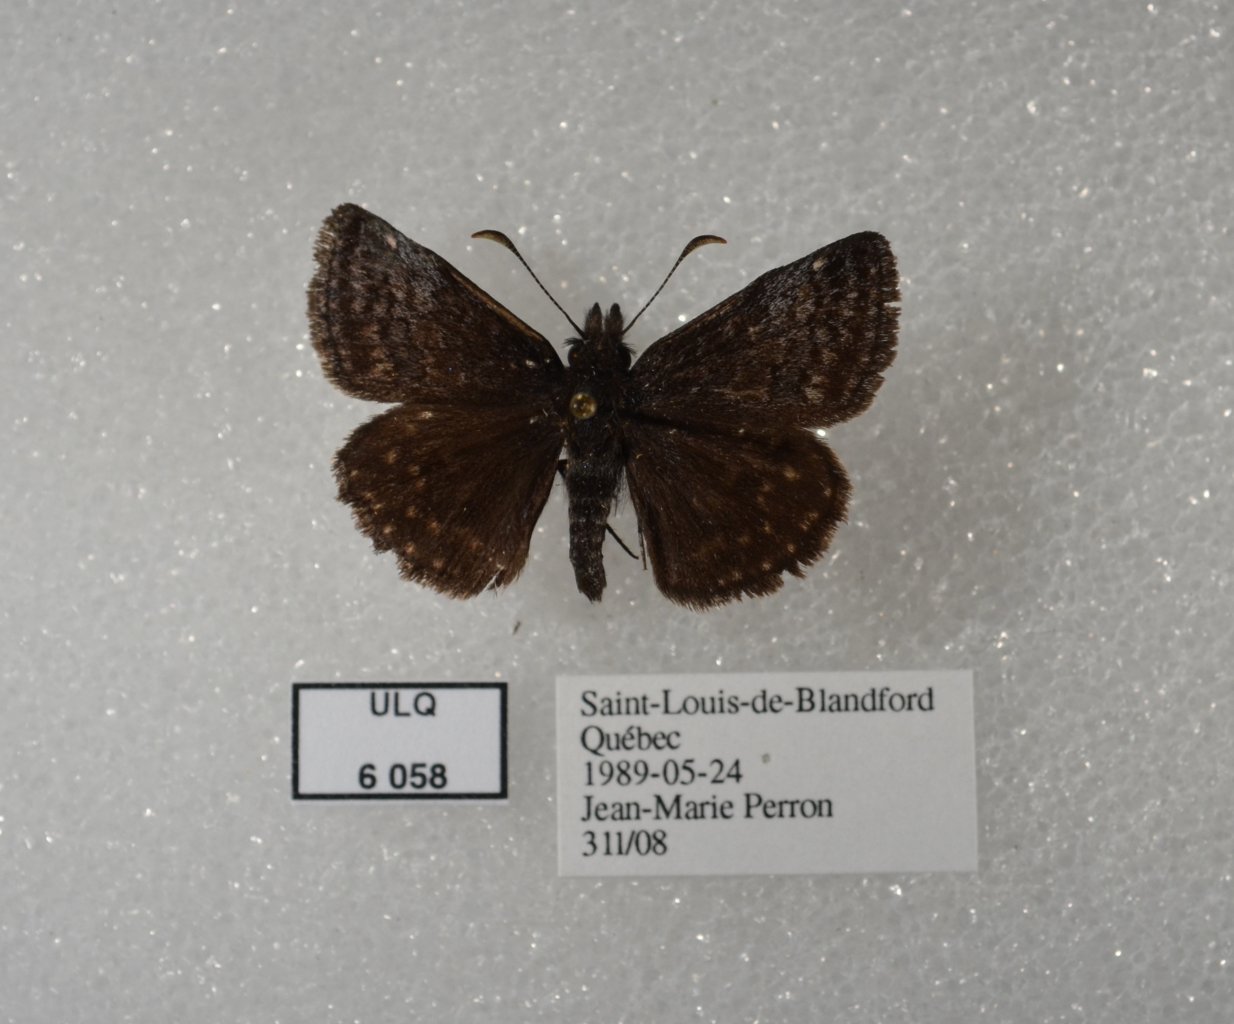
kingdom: Animalia
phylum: Arthropoda
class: Insecta
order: Lepidoptera
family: Hesperiidae
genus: Erynnis
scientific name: Erynnis icelus
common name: Dreamy Duskywing
